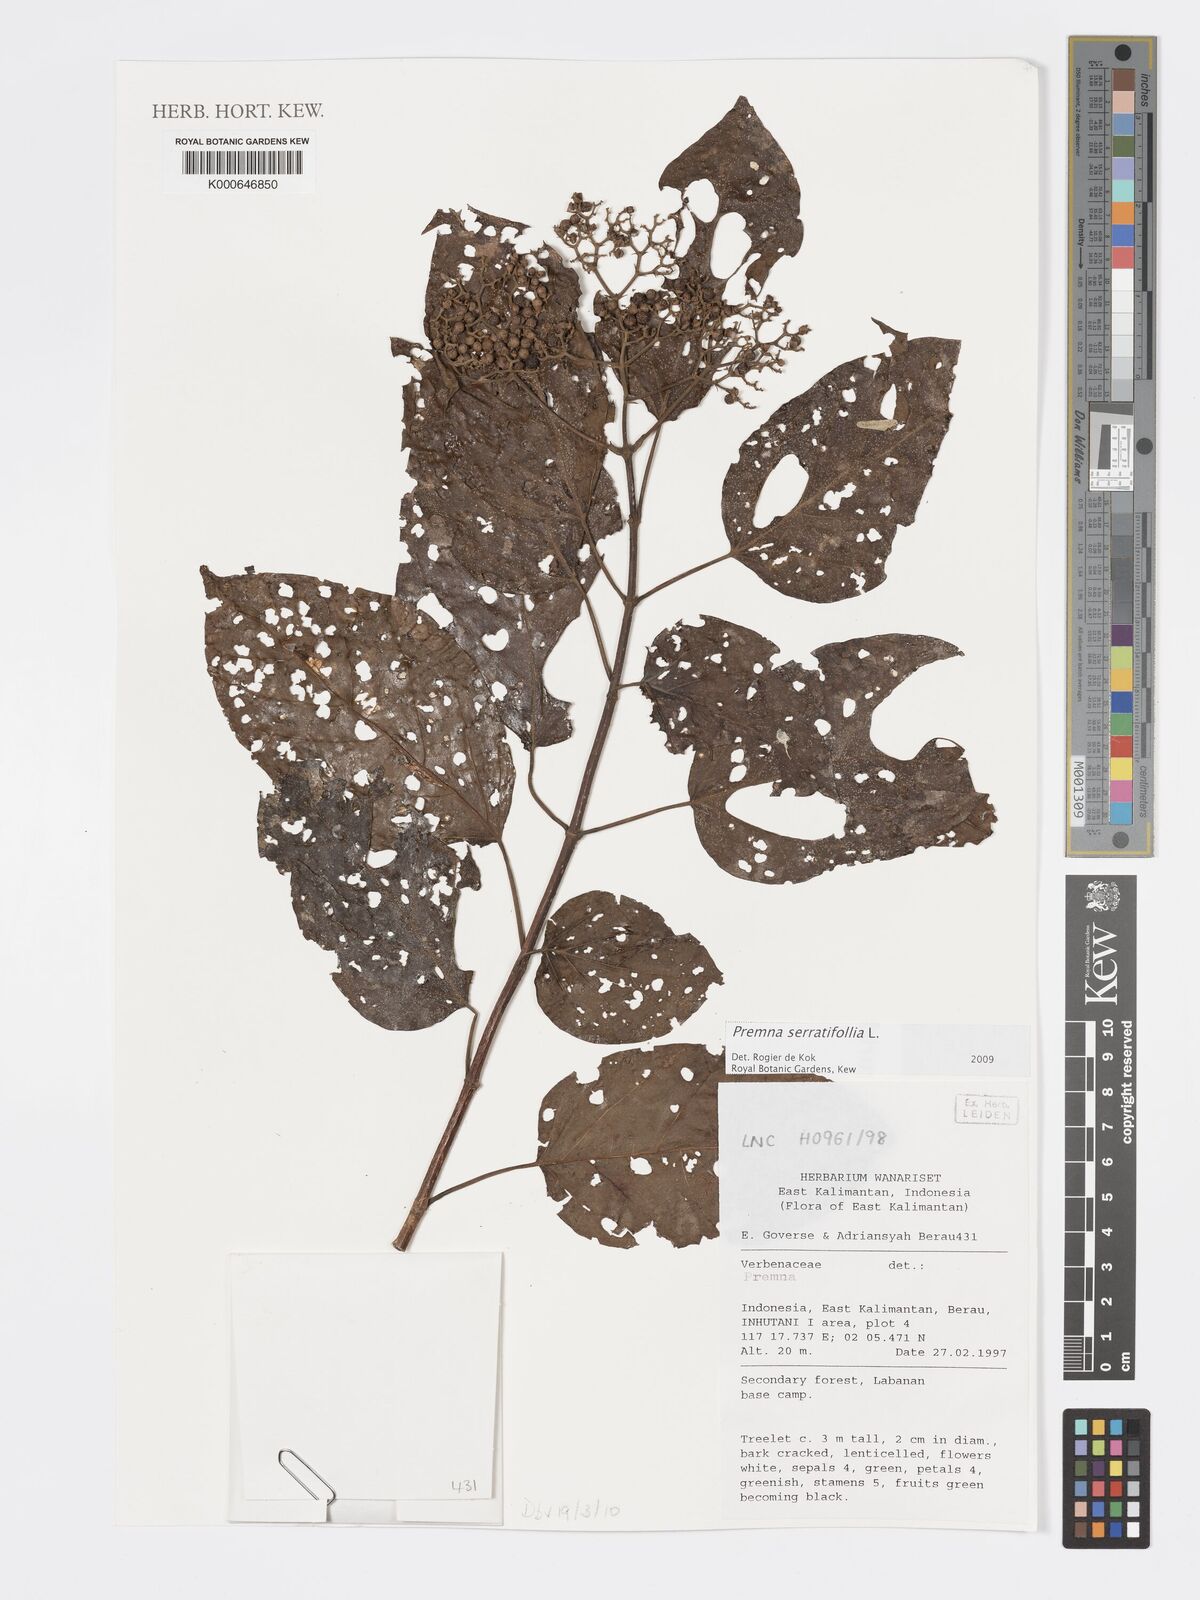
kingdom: Plantae
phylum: Tracheophyta
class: Magnoliopsida
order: Lamiales
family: Lamiaceae
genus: Premna
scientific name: Premna serratifolia
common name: Bastard guelder
